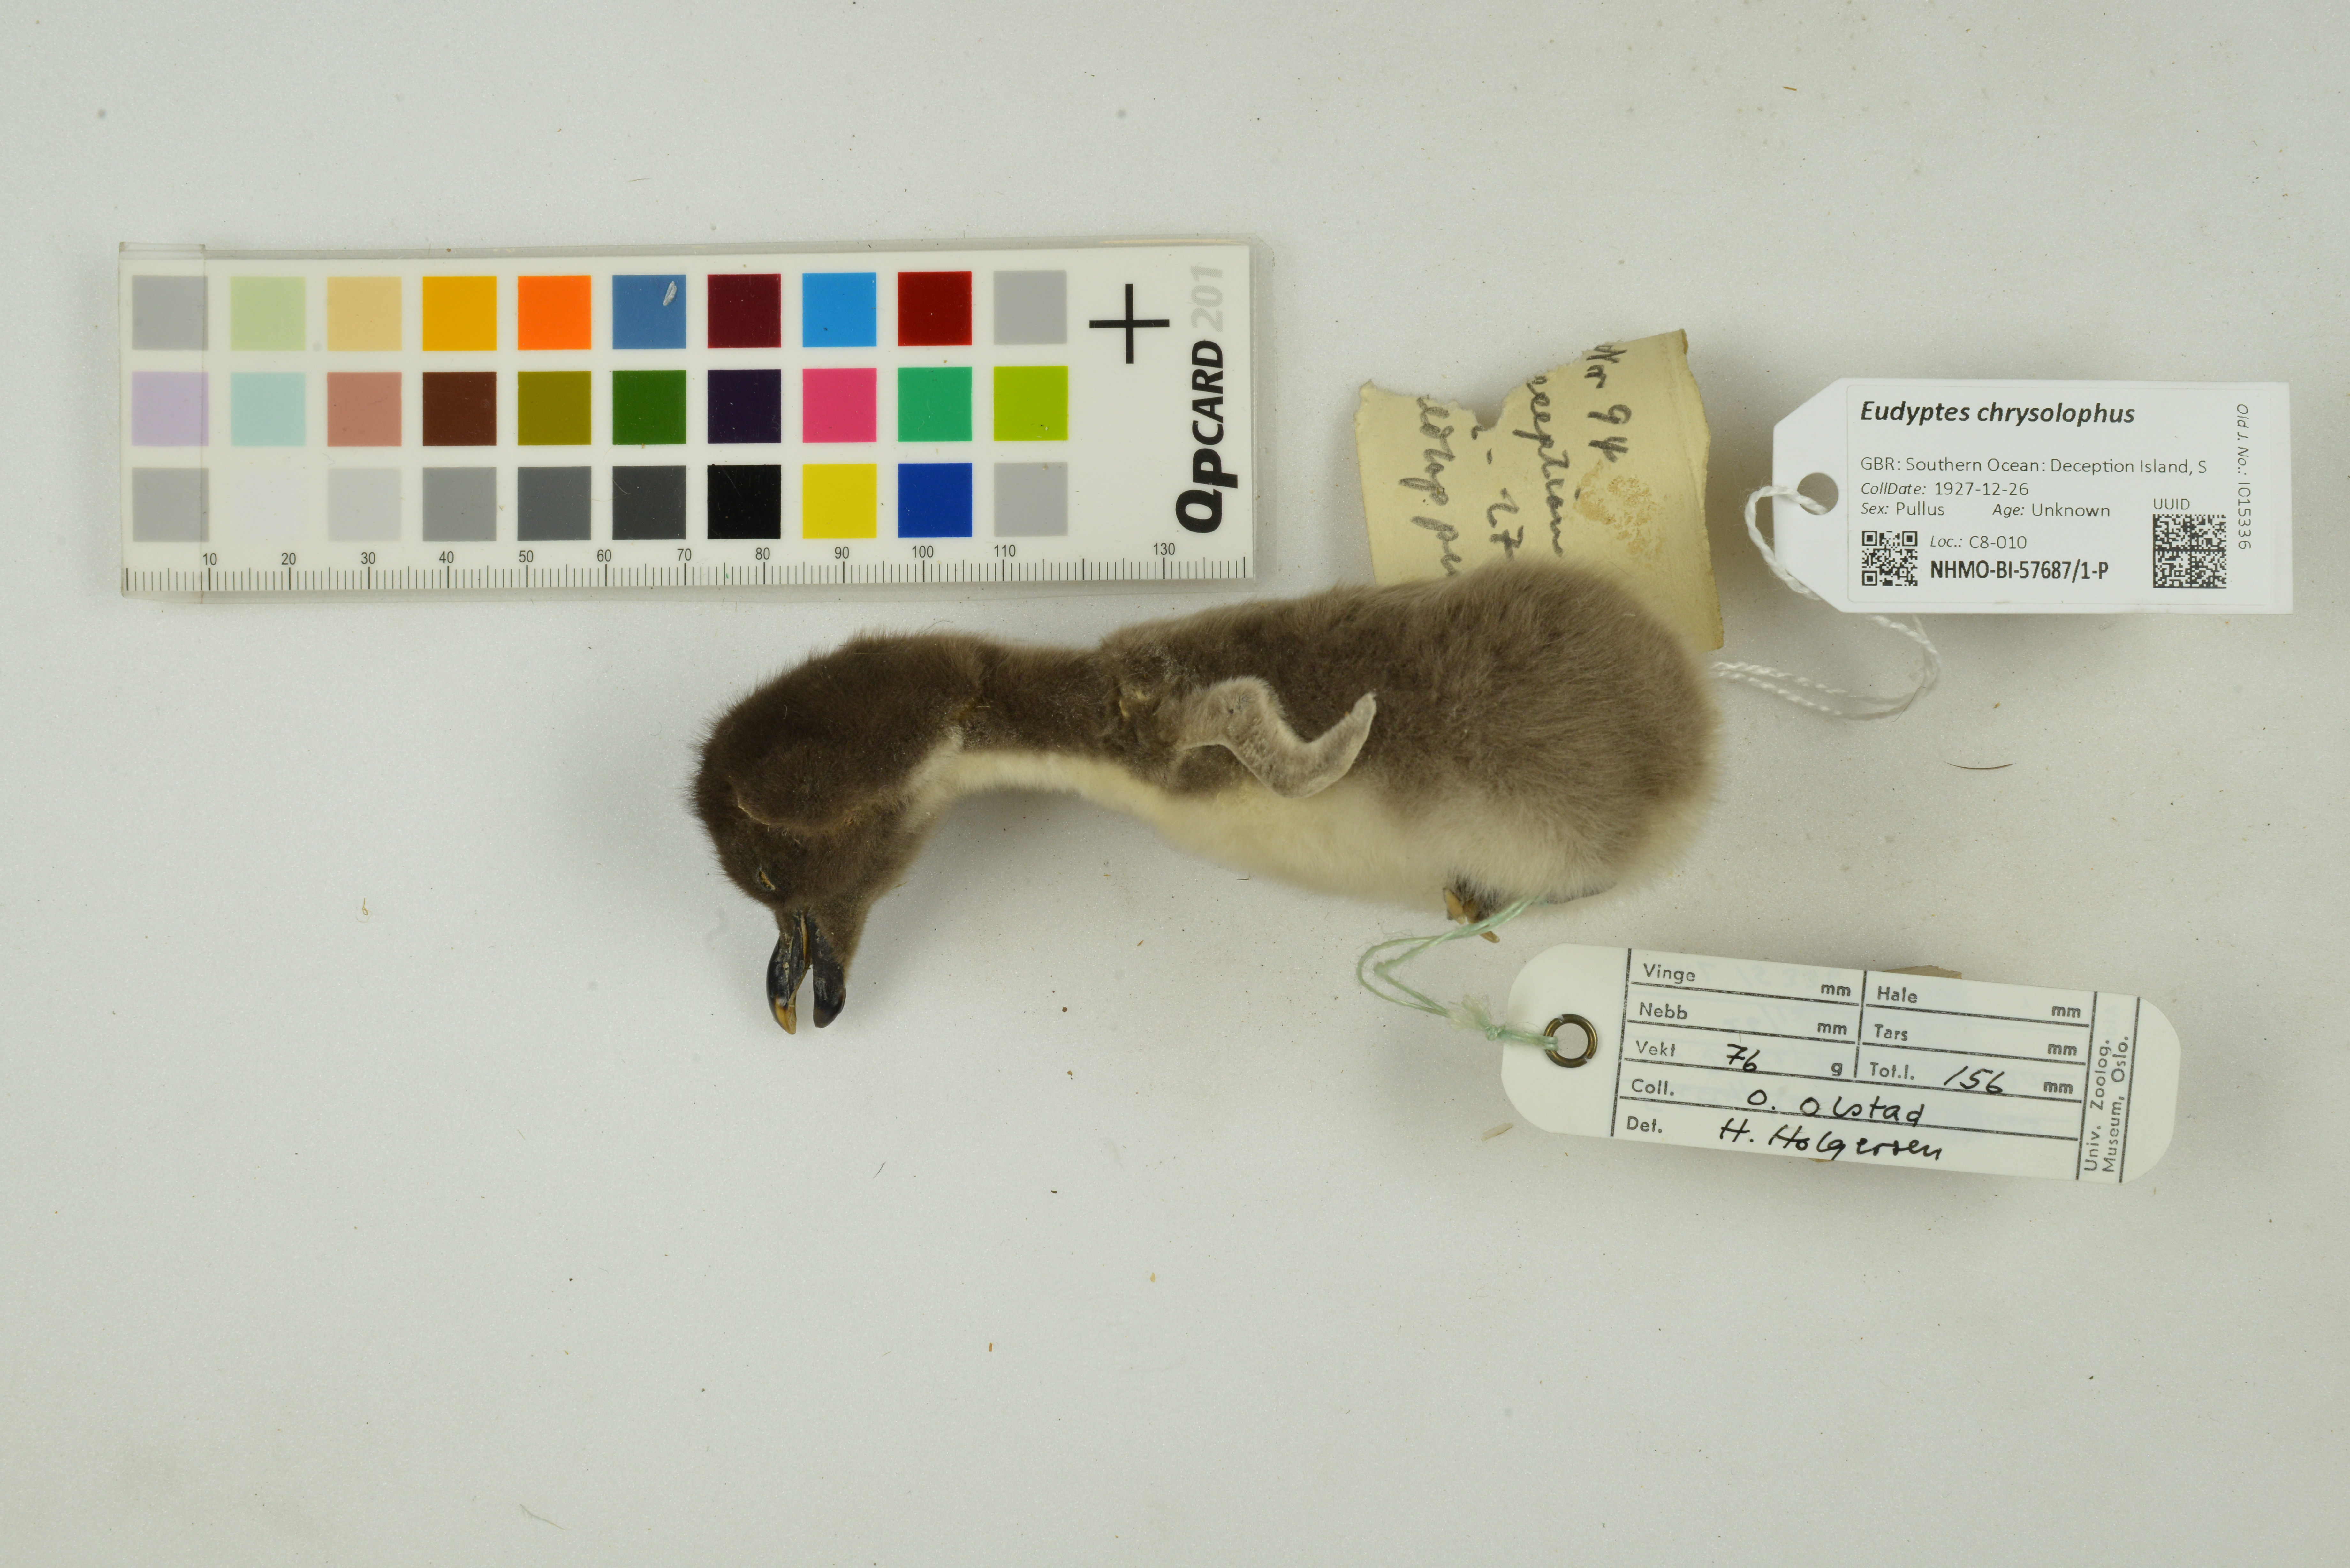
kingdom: Animalia
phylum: Chordata
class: Aves
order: Sphenisciformes
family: Spheniscidae
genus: Eudyptes
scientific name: Eudyptes chrysolophus
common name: Macaroni penguin
